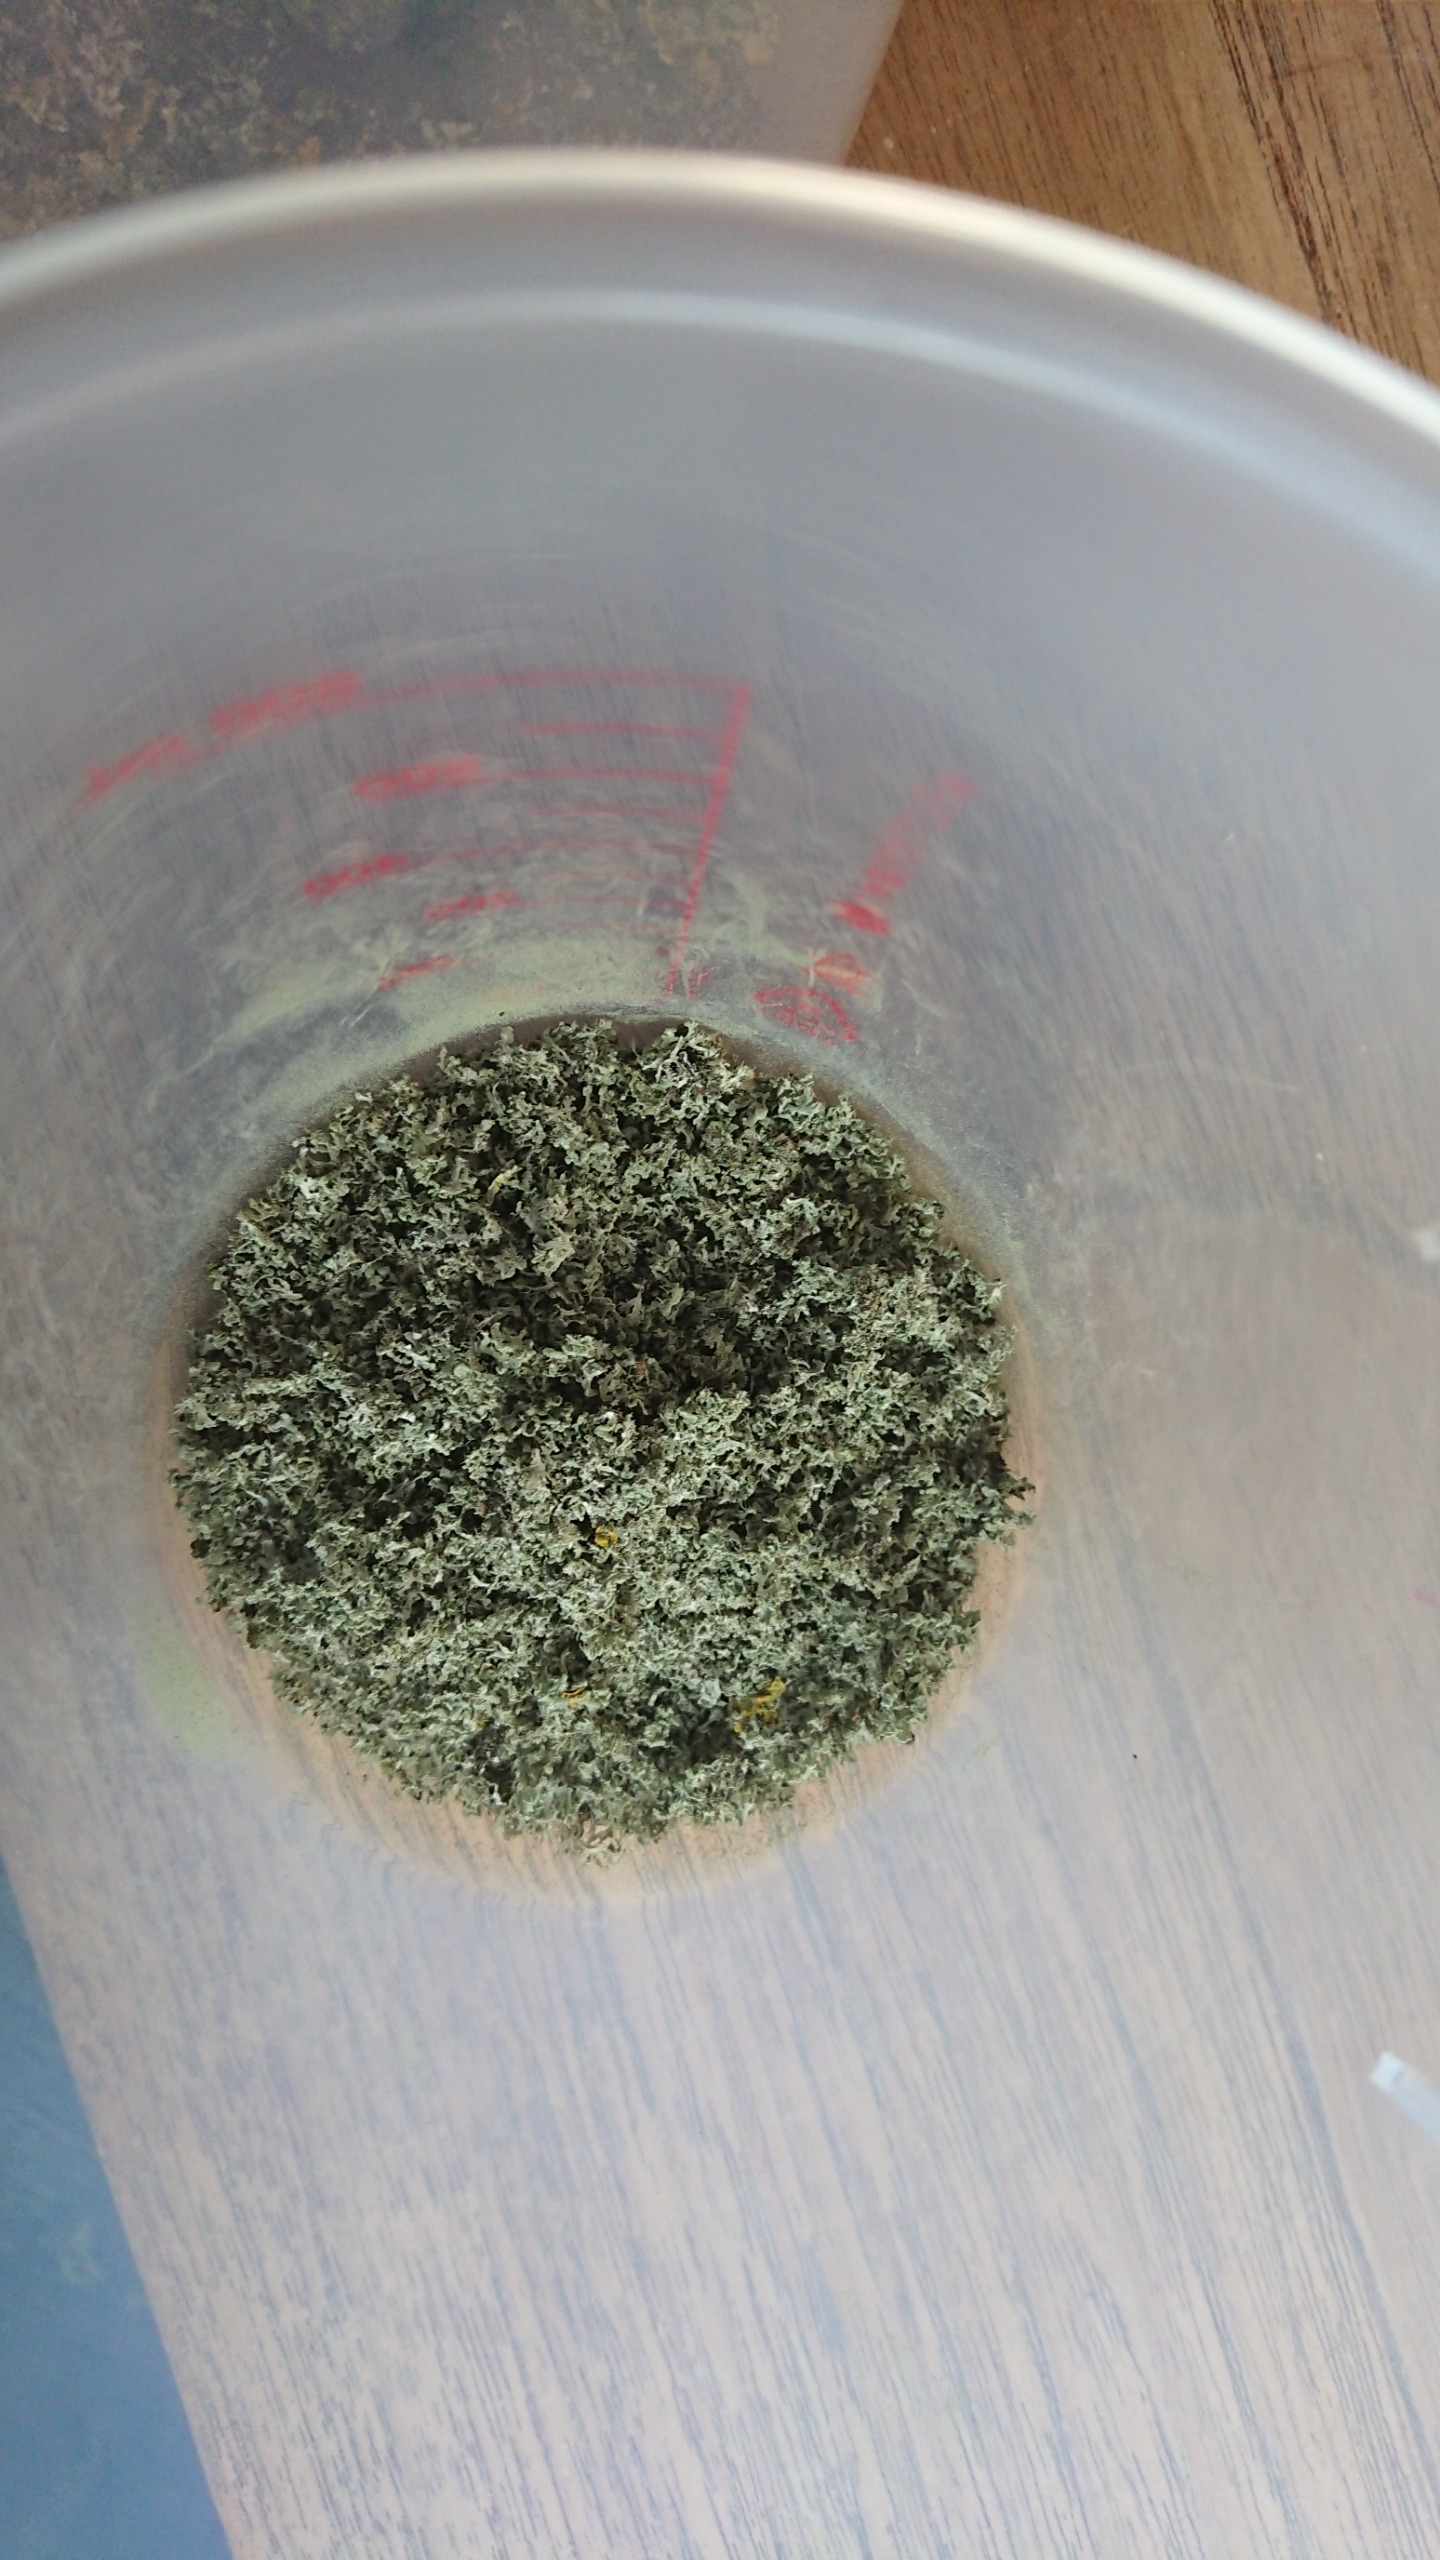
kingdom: Fungi
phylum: Ascomycota
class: Lecanoromycetes
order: Caliciales
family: Physciaceae
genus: Physcia
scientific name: Physcia tenella
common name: Spæd rosetlav
